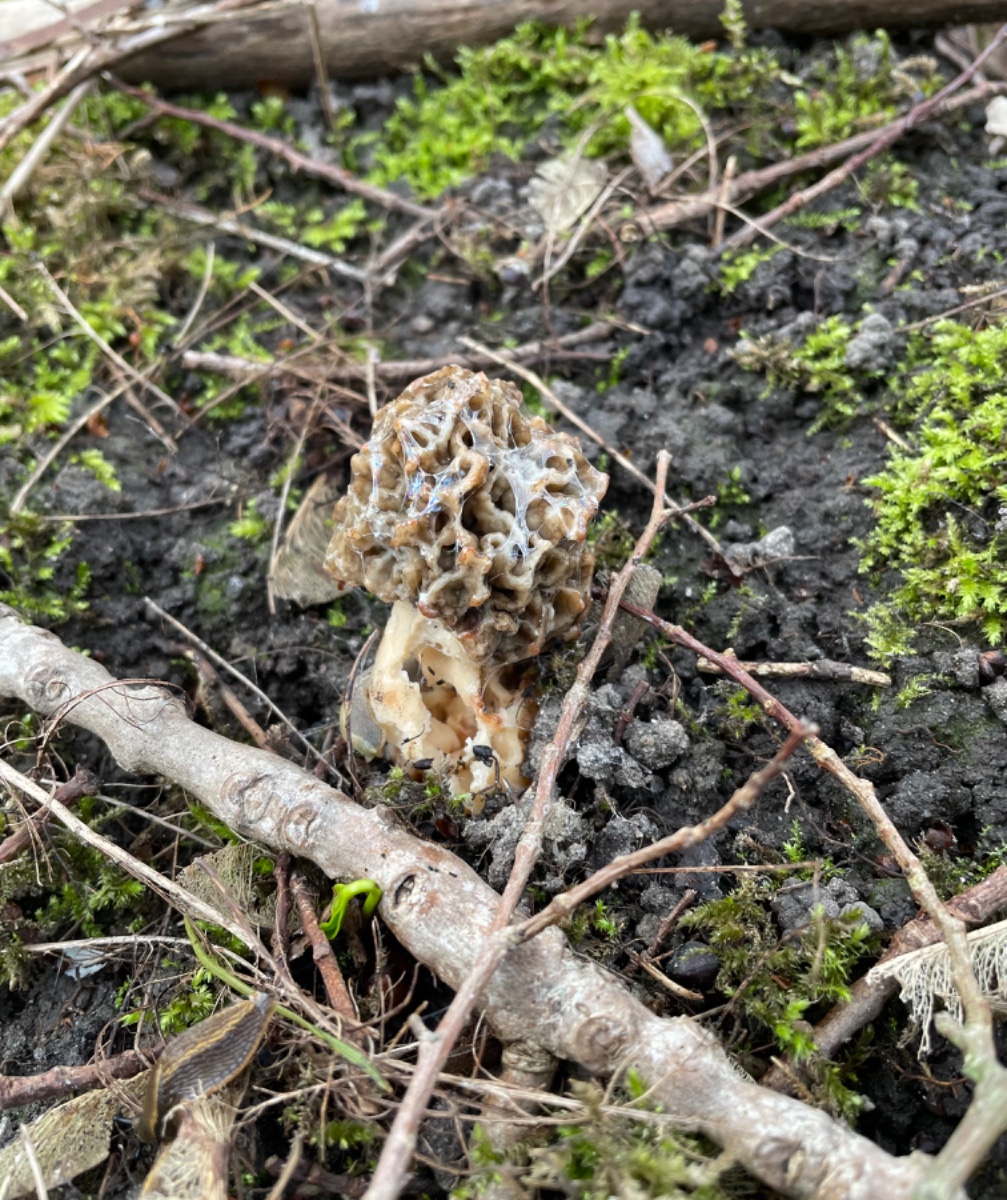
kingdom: Fungi
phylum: Ascomycota
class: Pezizomycetes
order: Pezizales
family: Morchellaceae
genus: Morchella
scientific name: Morchella esculenta
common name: spiselig morkel
